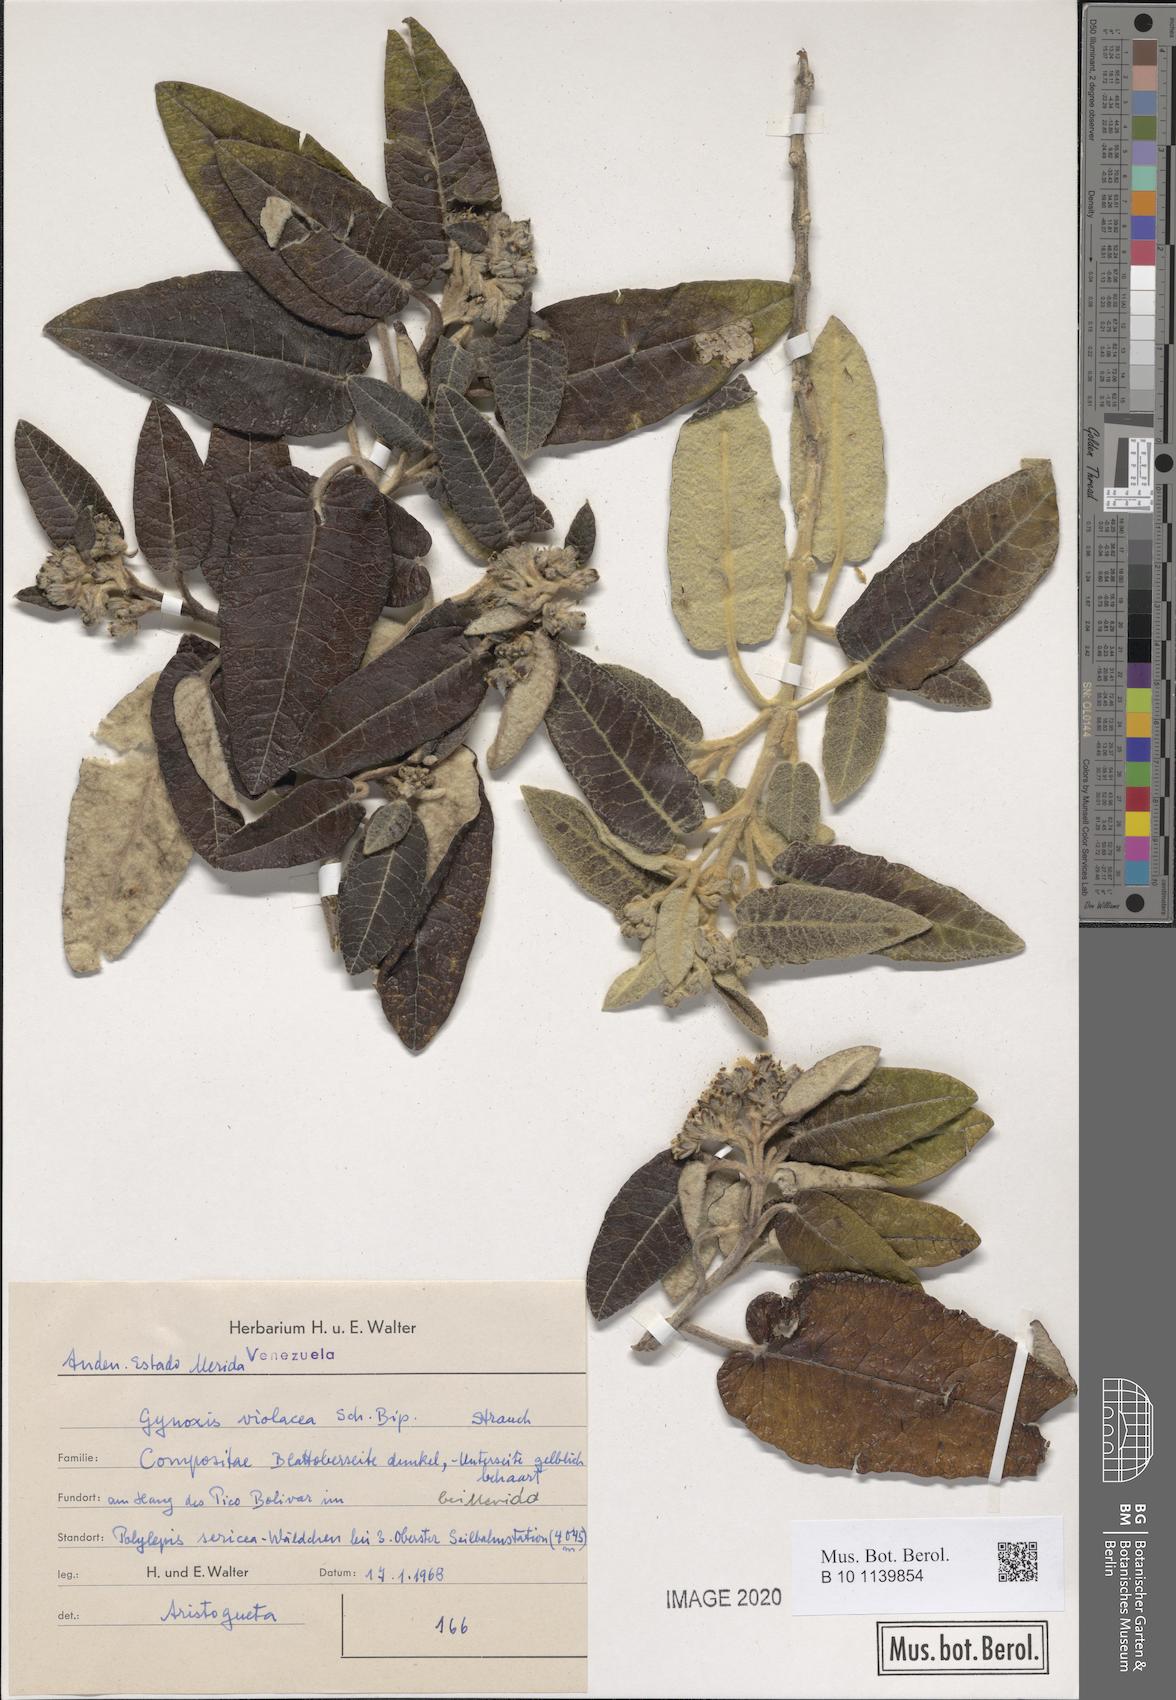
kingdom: Plantae
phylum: Tracheophyta
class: Magnoliopsida
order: Asterales
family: Asteraceae
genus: Gynoxys
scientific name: Gynoxys violacea
